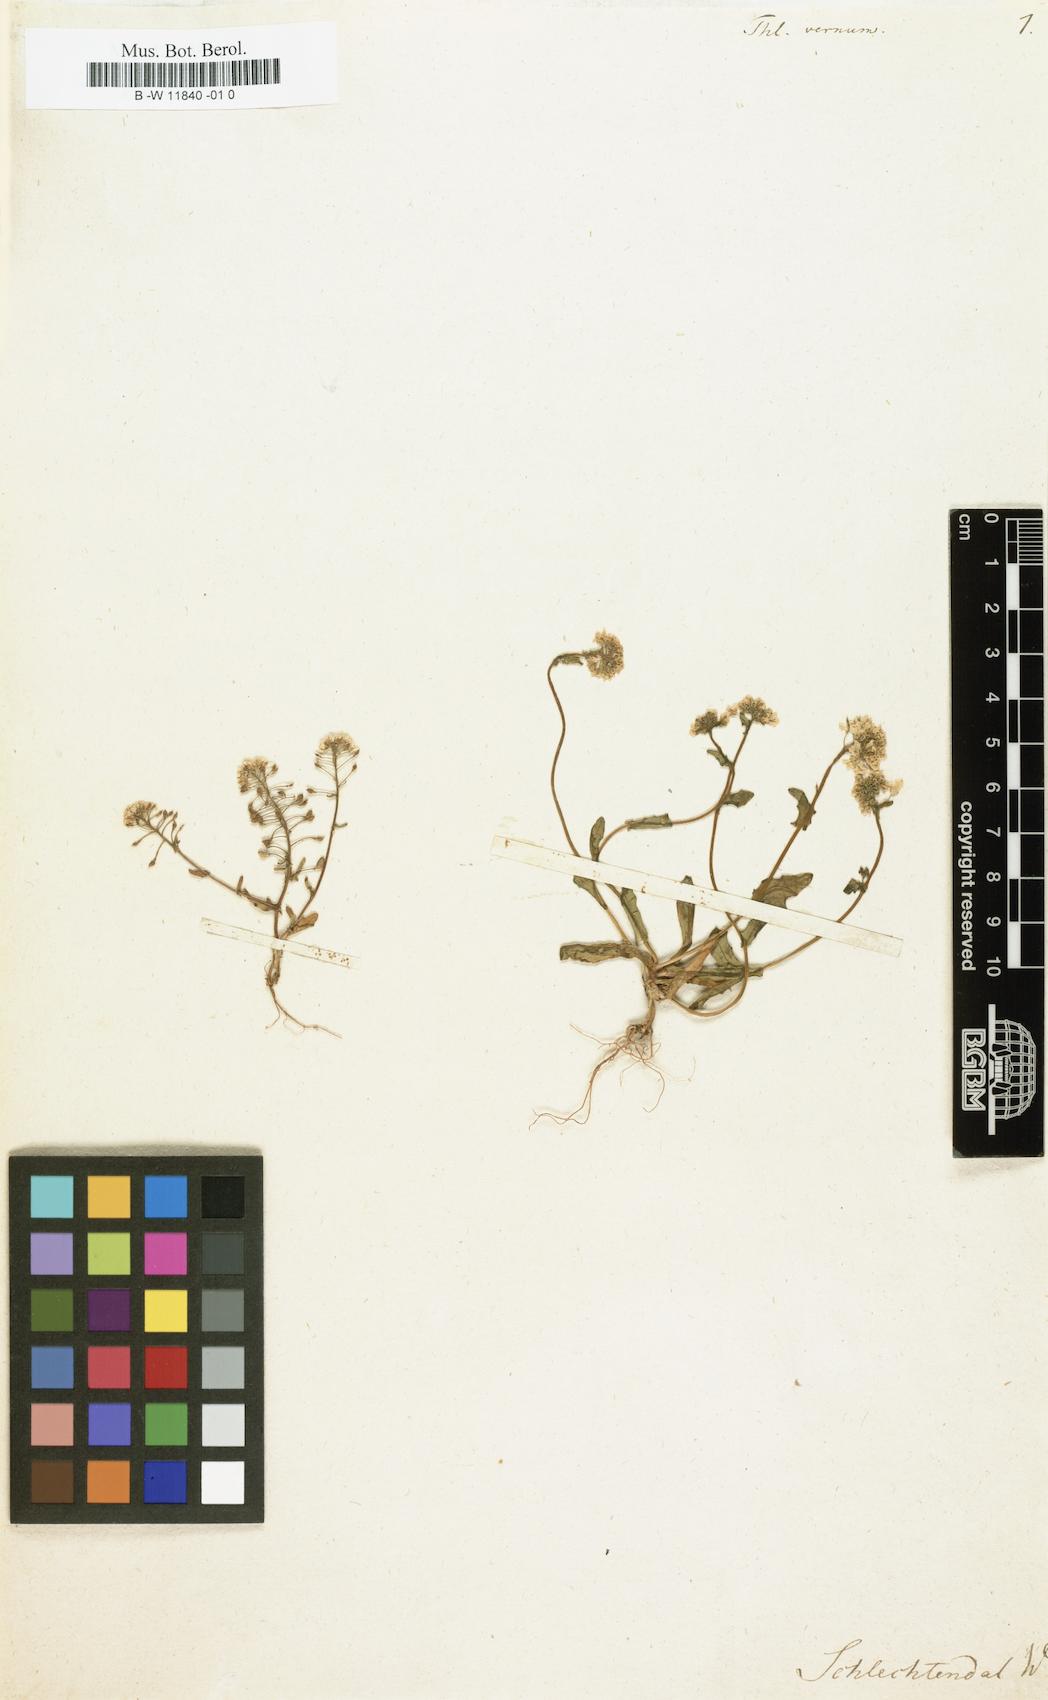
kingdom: Plantae
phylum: Tracheophyta
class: Magnoliopsida
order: Brassicales
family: Brassicaceae
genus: Thlaspi
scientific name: Thlaspi
